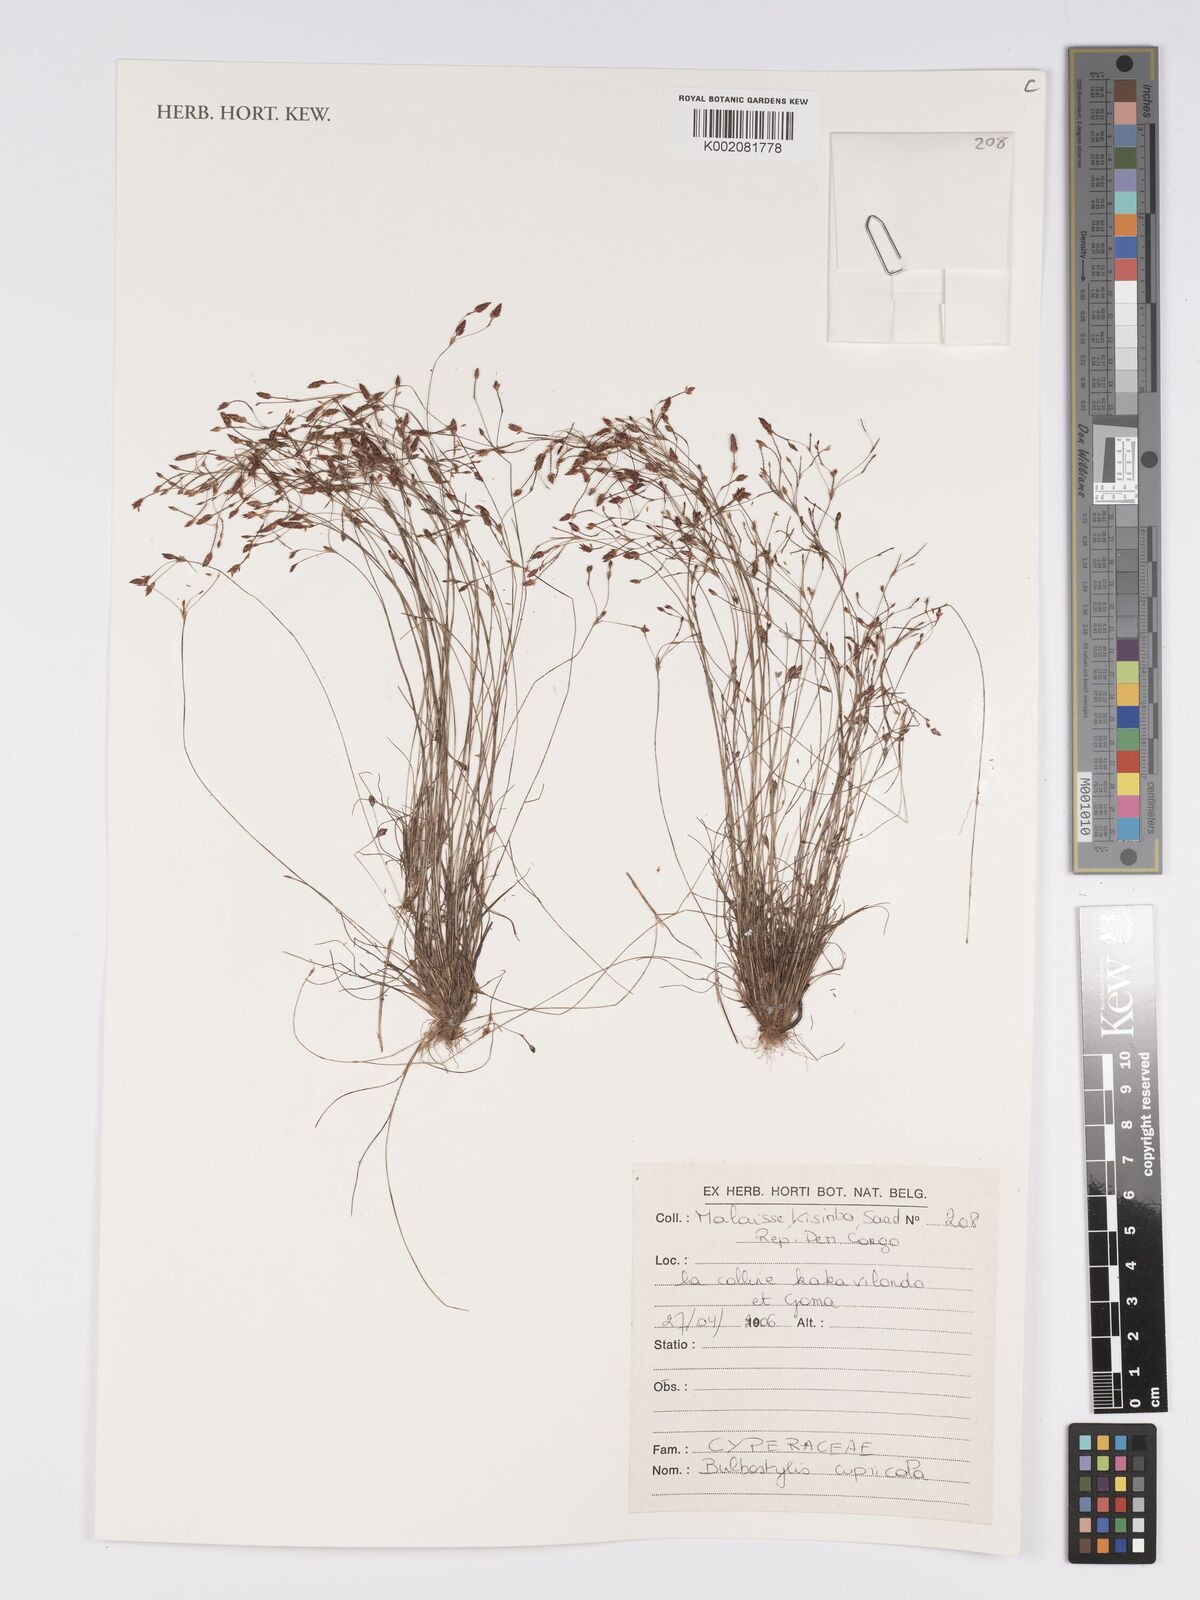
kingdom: Plantae
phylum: Tracheophyta
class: Liliopsida
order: Poales
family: Cyperaceae
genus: Bulbostylis
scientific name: Bulbostylis cupricola
